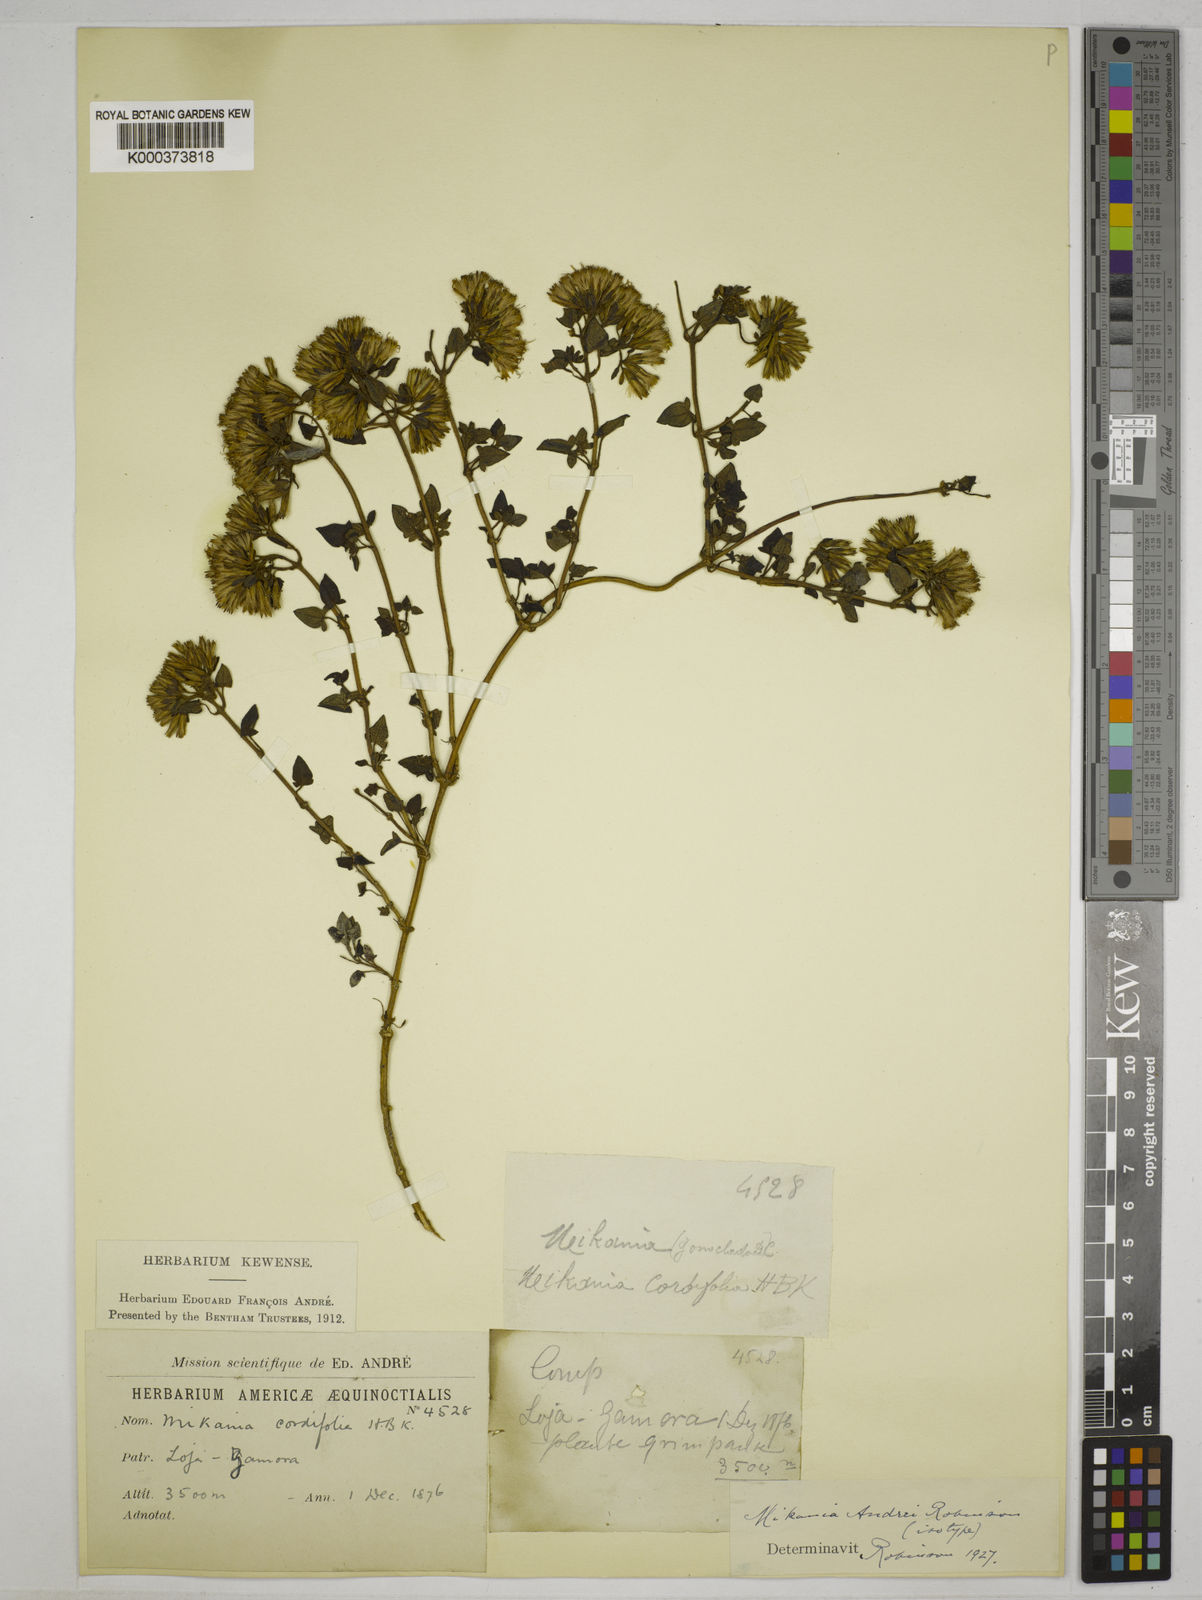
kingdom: Plantae
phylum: Tracheophyta
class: Magnoliopsida
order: Asterales
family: Asteraceae
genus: Mikania
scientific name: Mikania andrei
